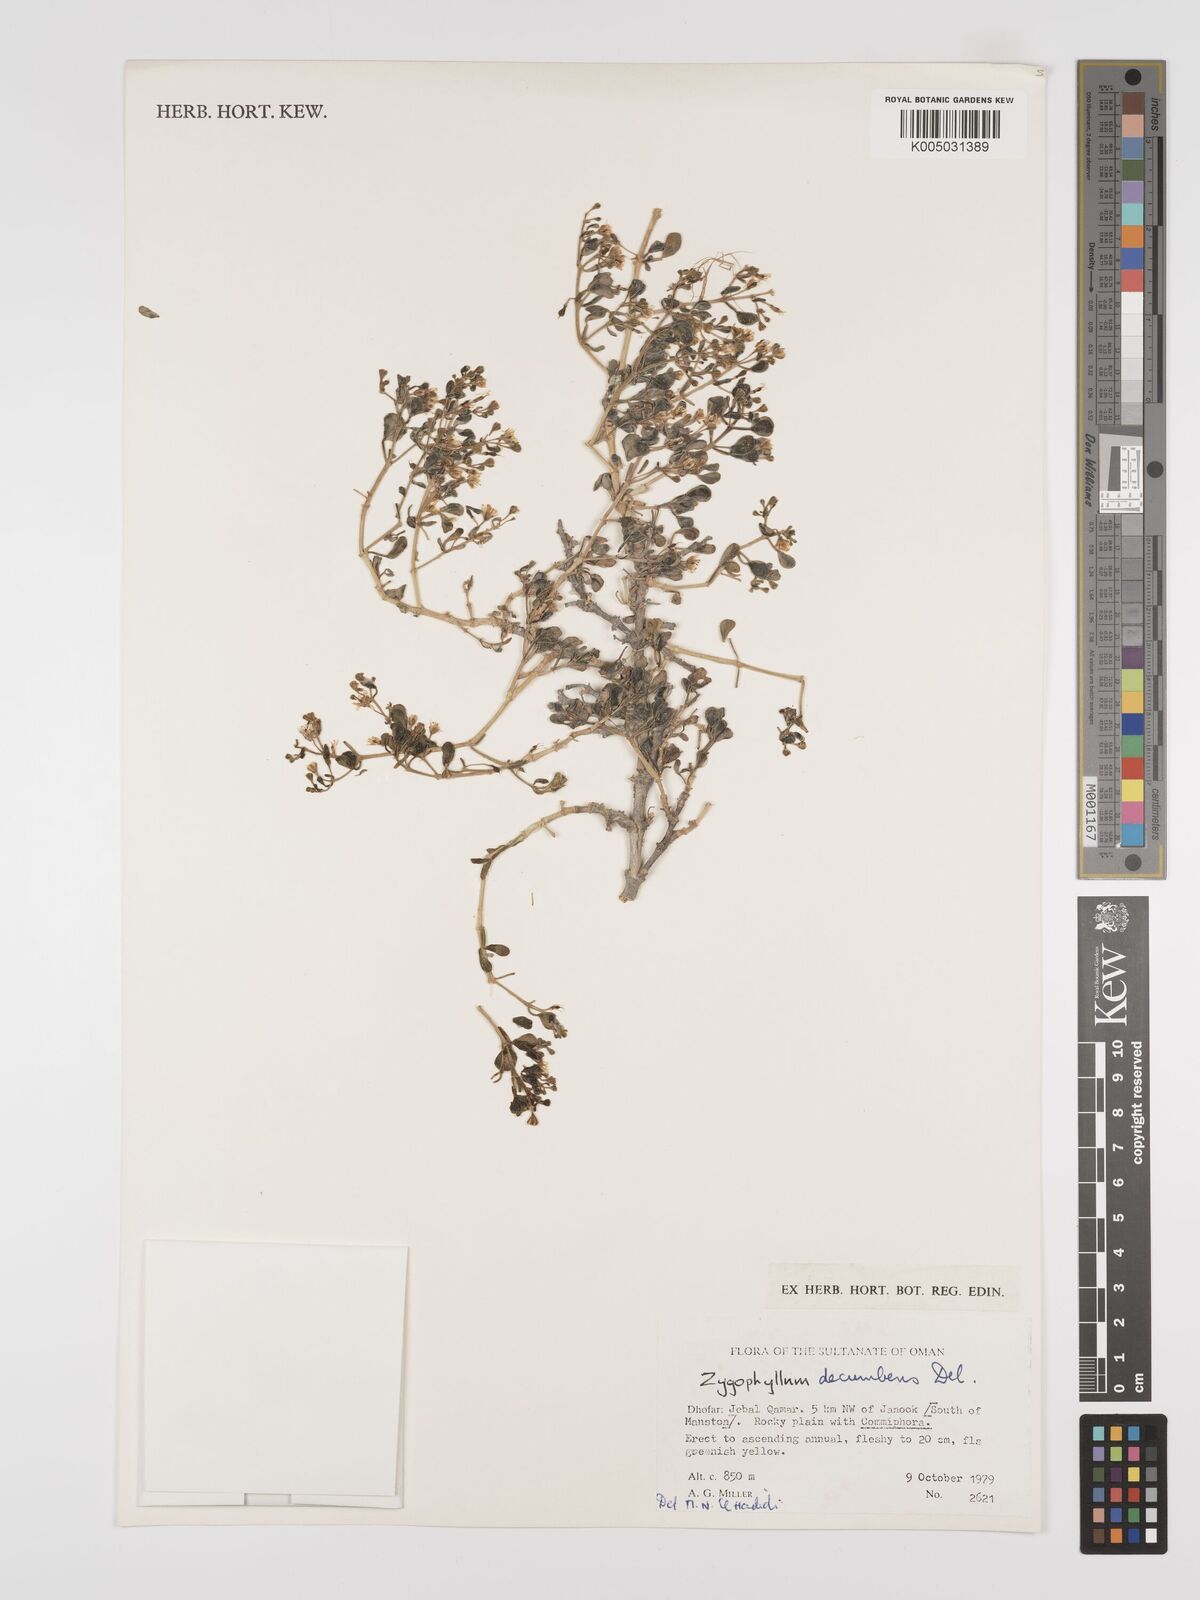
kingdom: Plantae
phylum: Tracheophyta
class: Magnoliopsida
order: Zygophyllales
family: Zygophyllaceae
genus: Tetraena
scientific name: Tetraena decumbens
